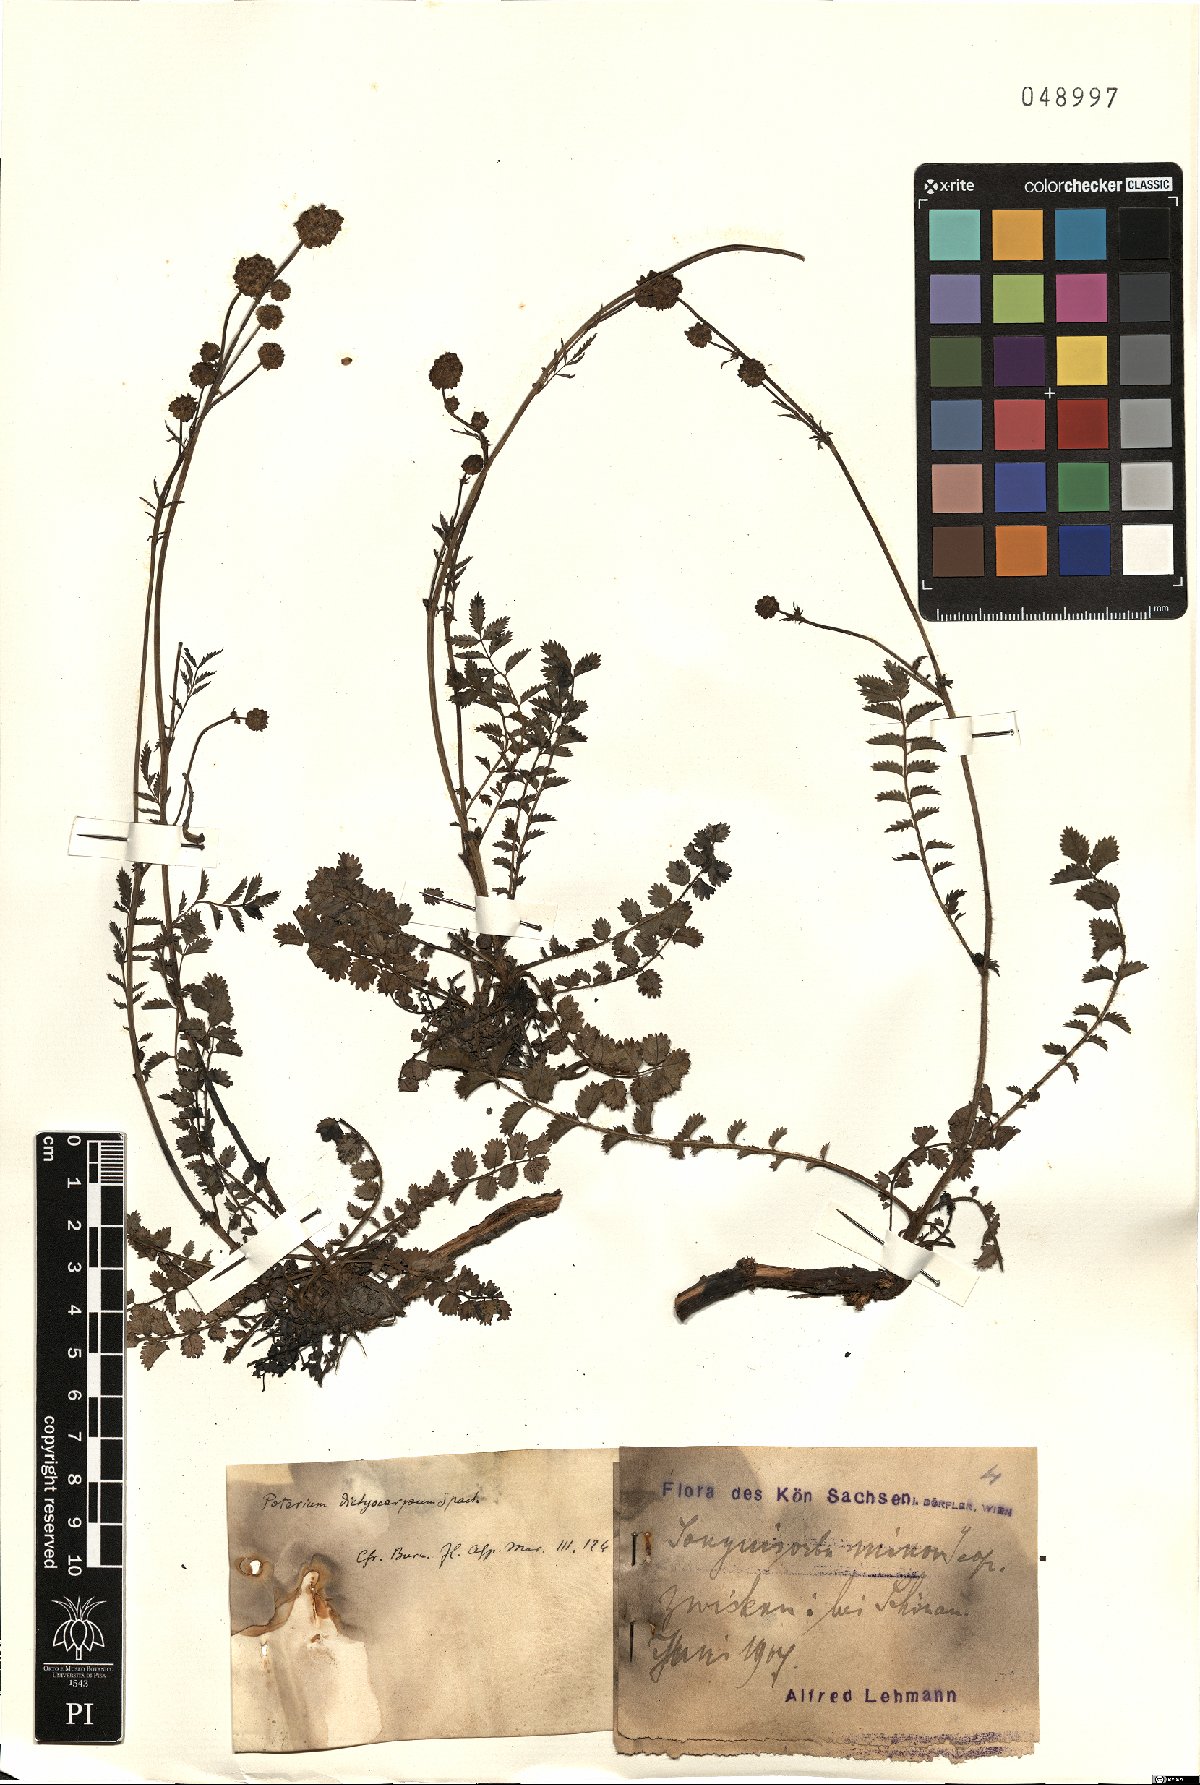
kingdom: Plantae
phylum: Tracheophyta
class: Magnoliopsida
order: Rosales
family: Rosaceae
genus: Poterium
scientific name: Poterium sanguisorba
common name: Salad burnet
